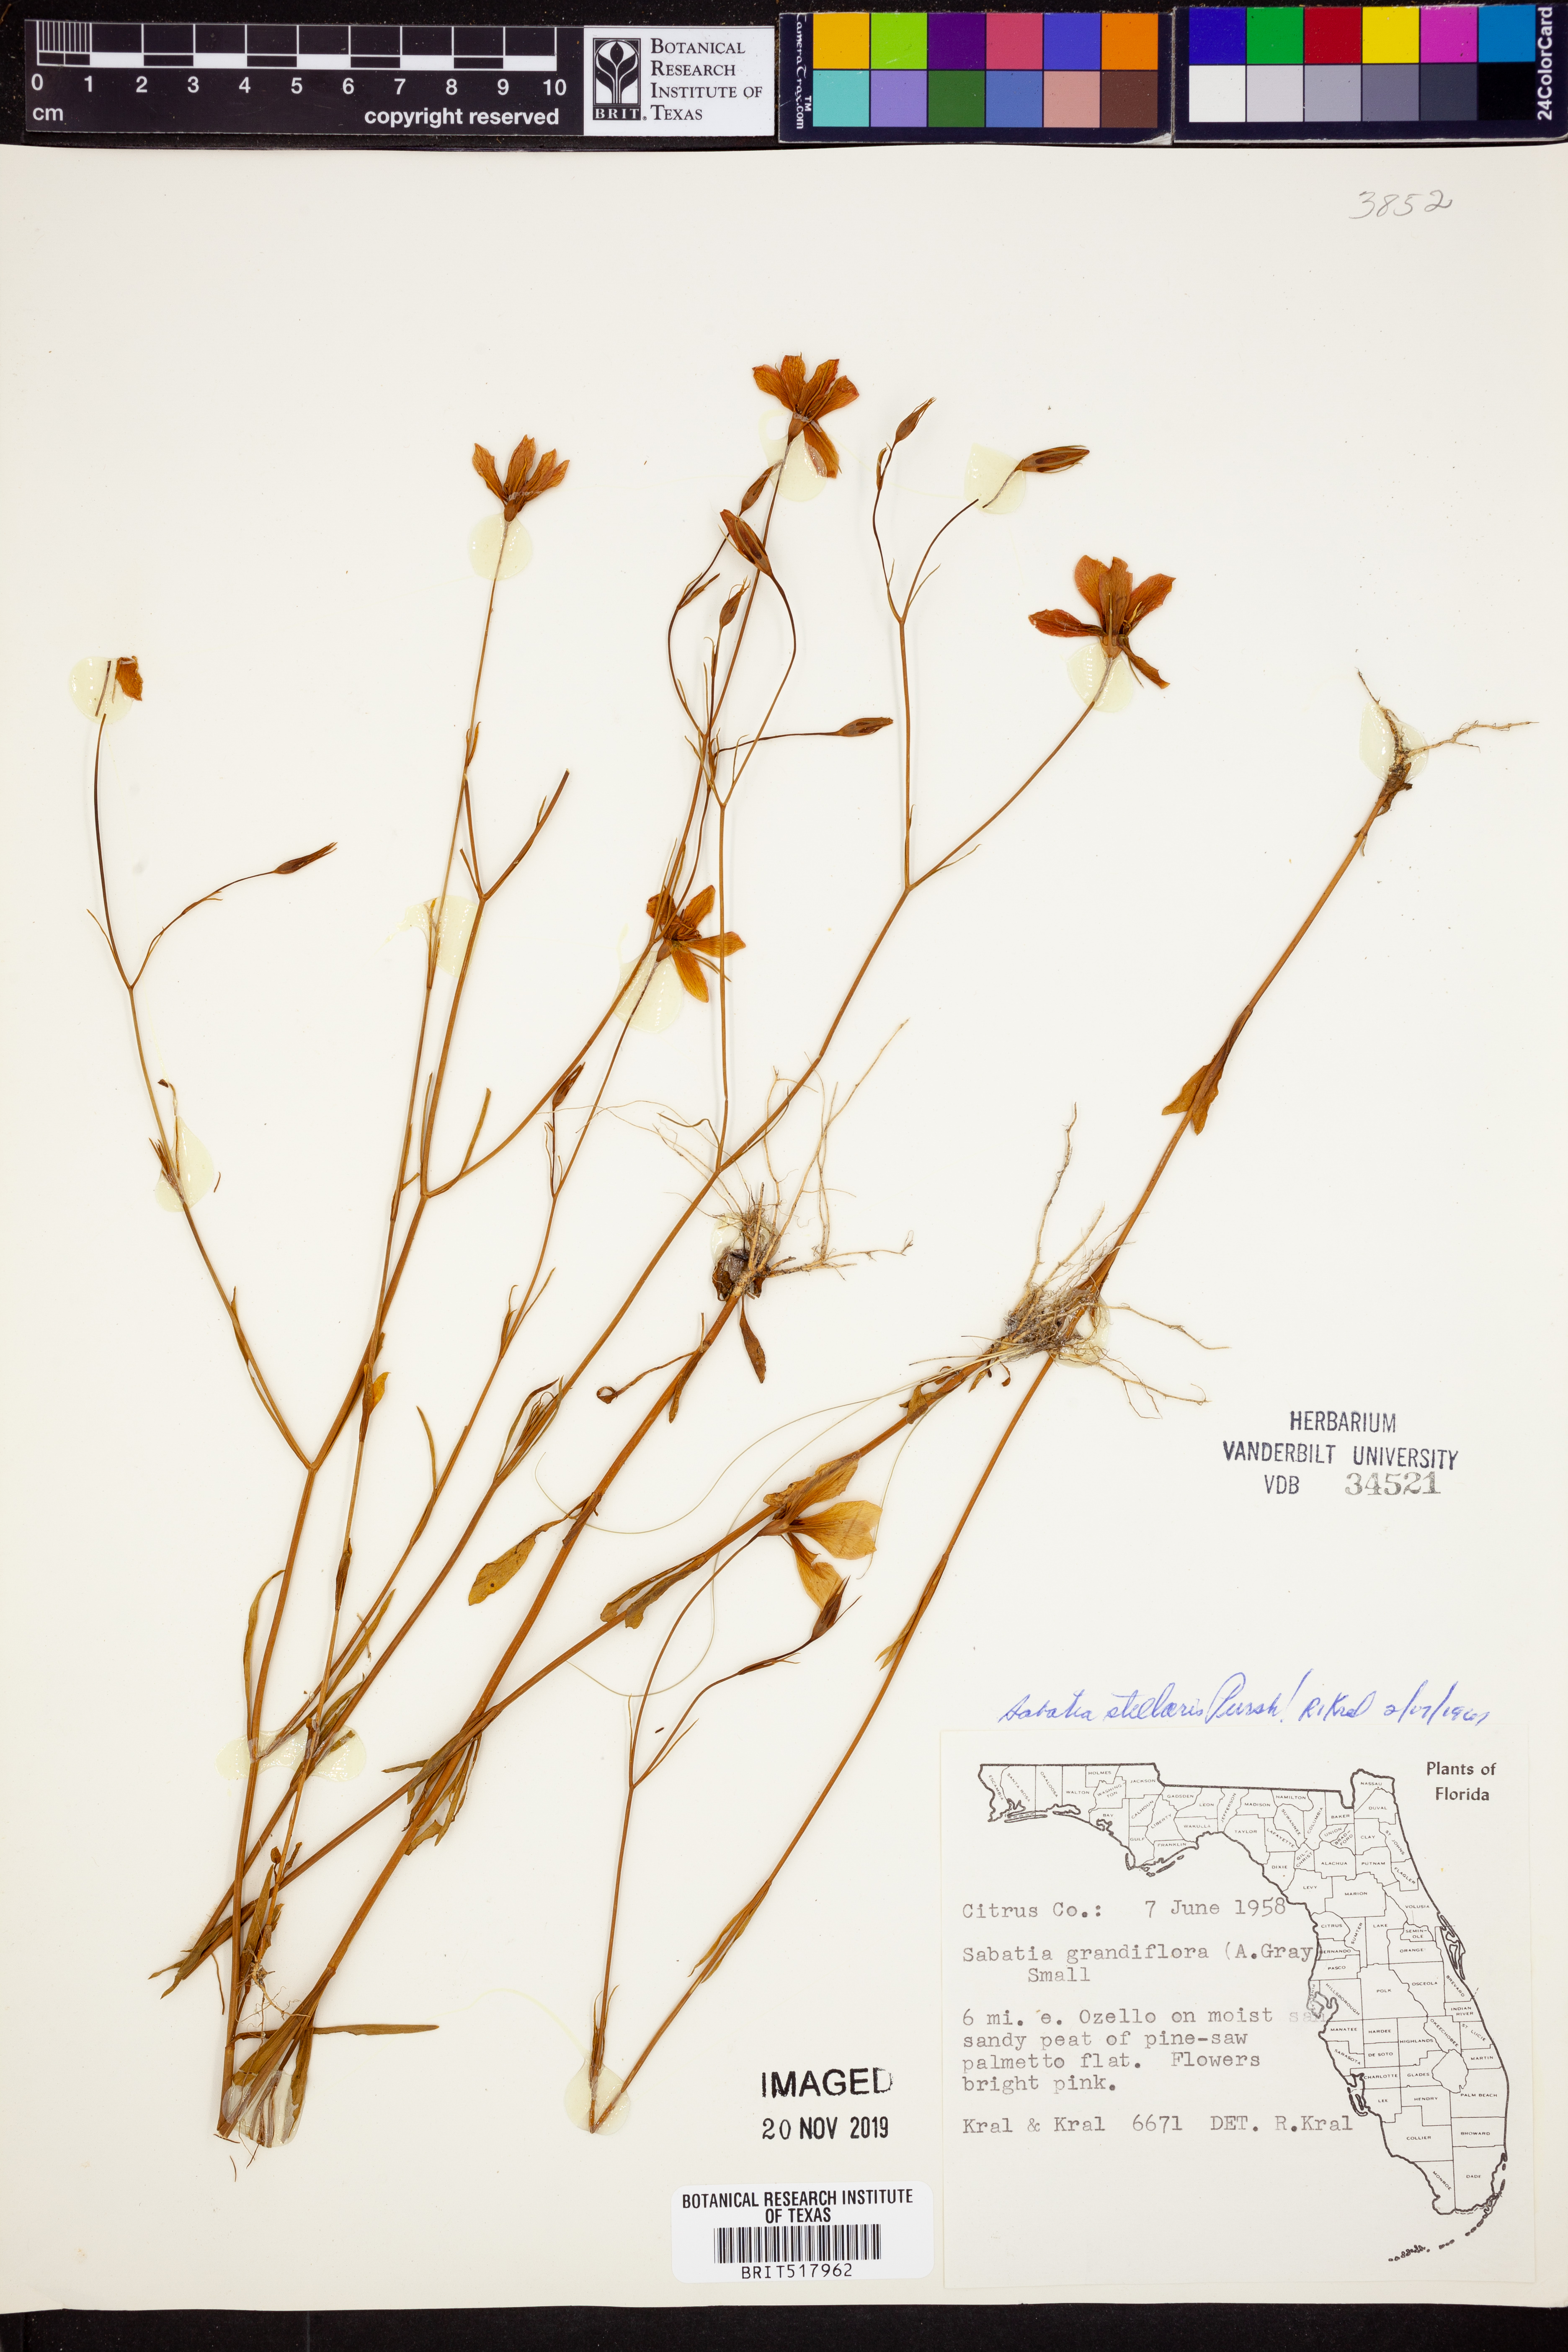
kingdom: Plantae
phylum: Tracheophyta
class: Magnoliopsida
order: Gentianales
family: Gentianaceae
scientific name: Gentianaceae
